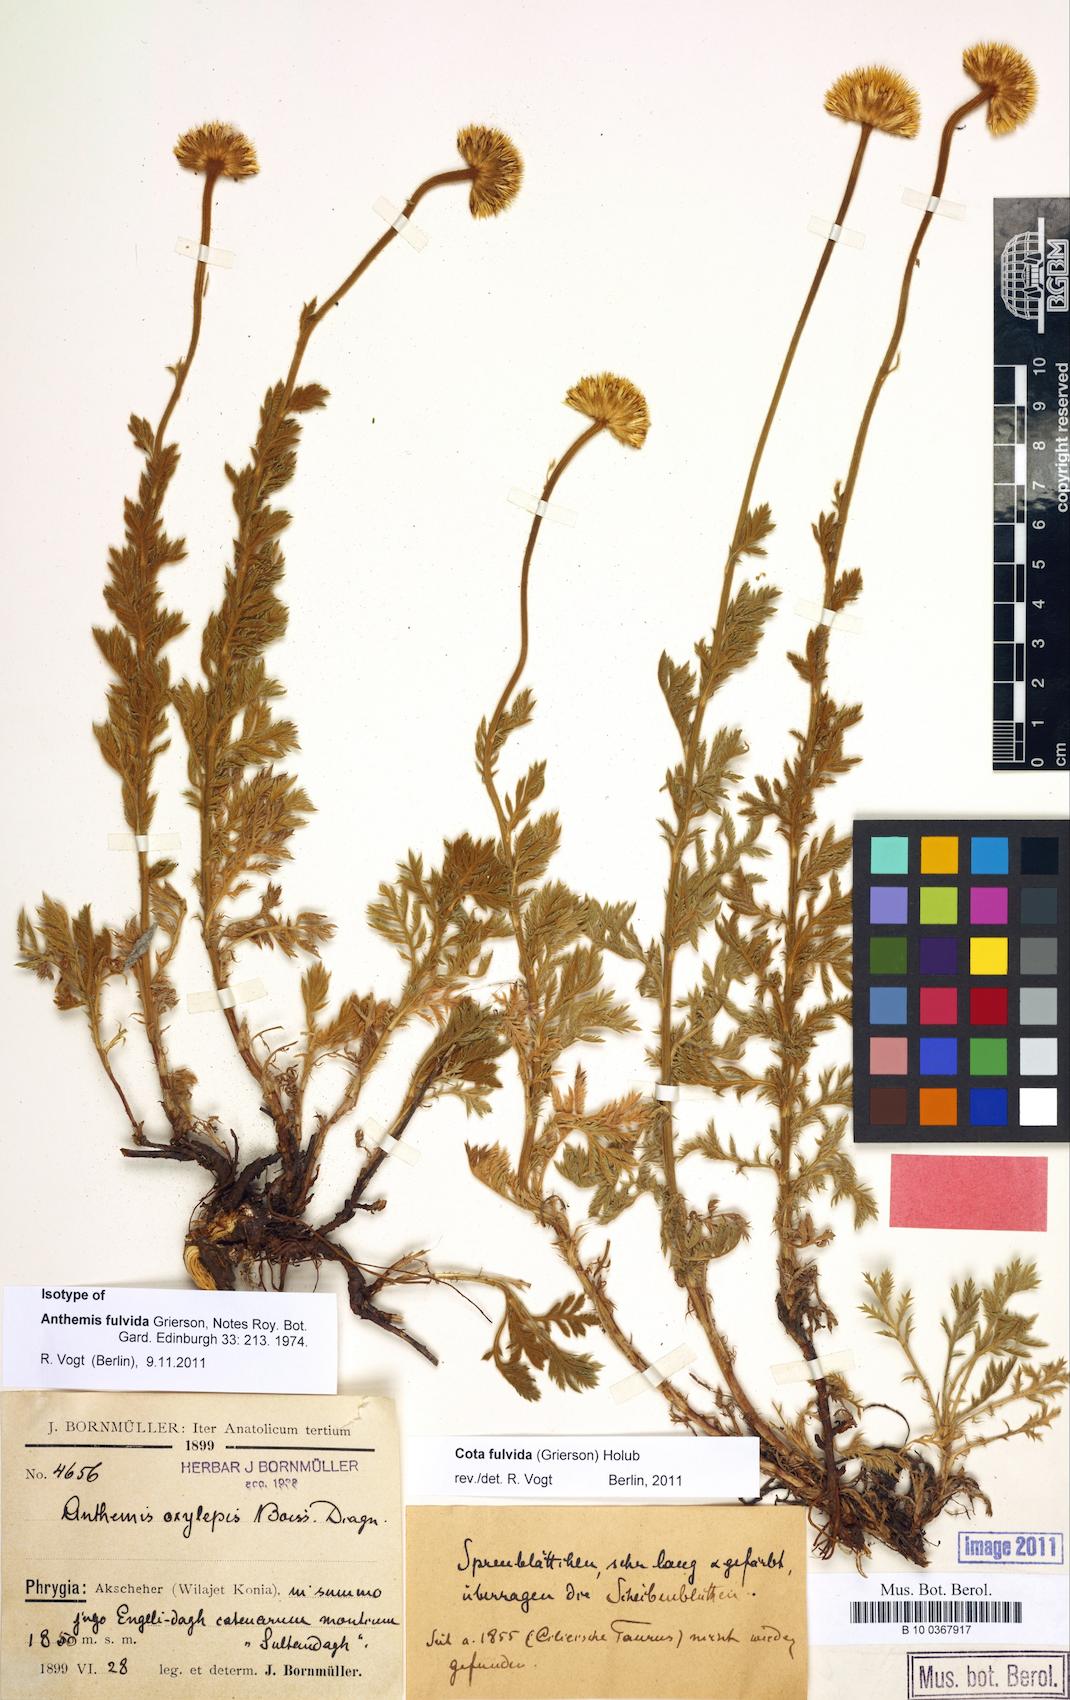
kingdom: Plantae
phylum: Tracheophyta
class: Magnoliopsida
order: Asterales
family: Asteraceae
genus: Cota
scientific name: Cota fulvida
